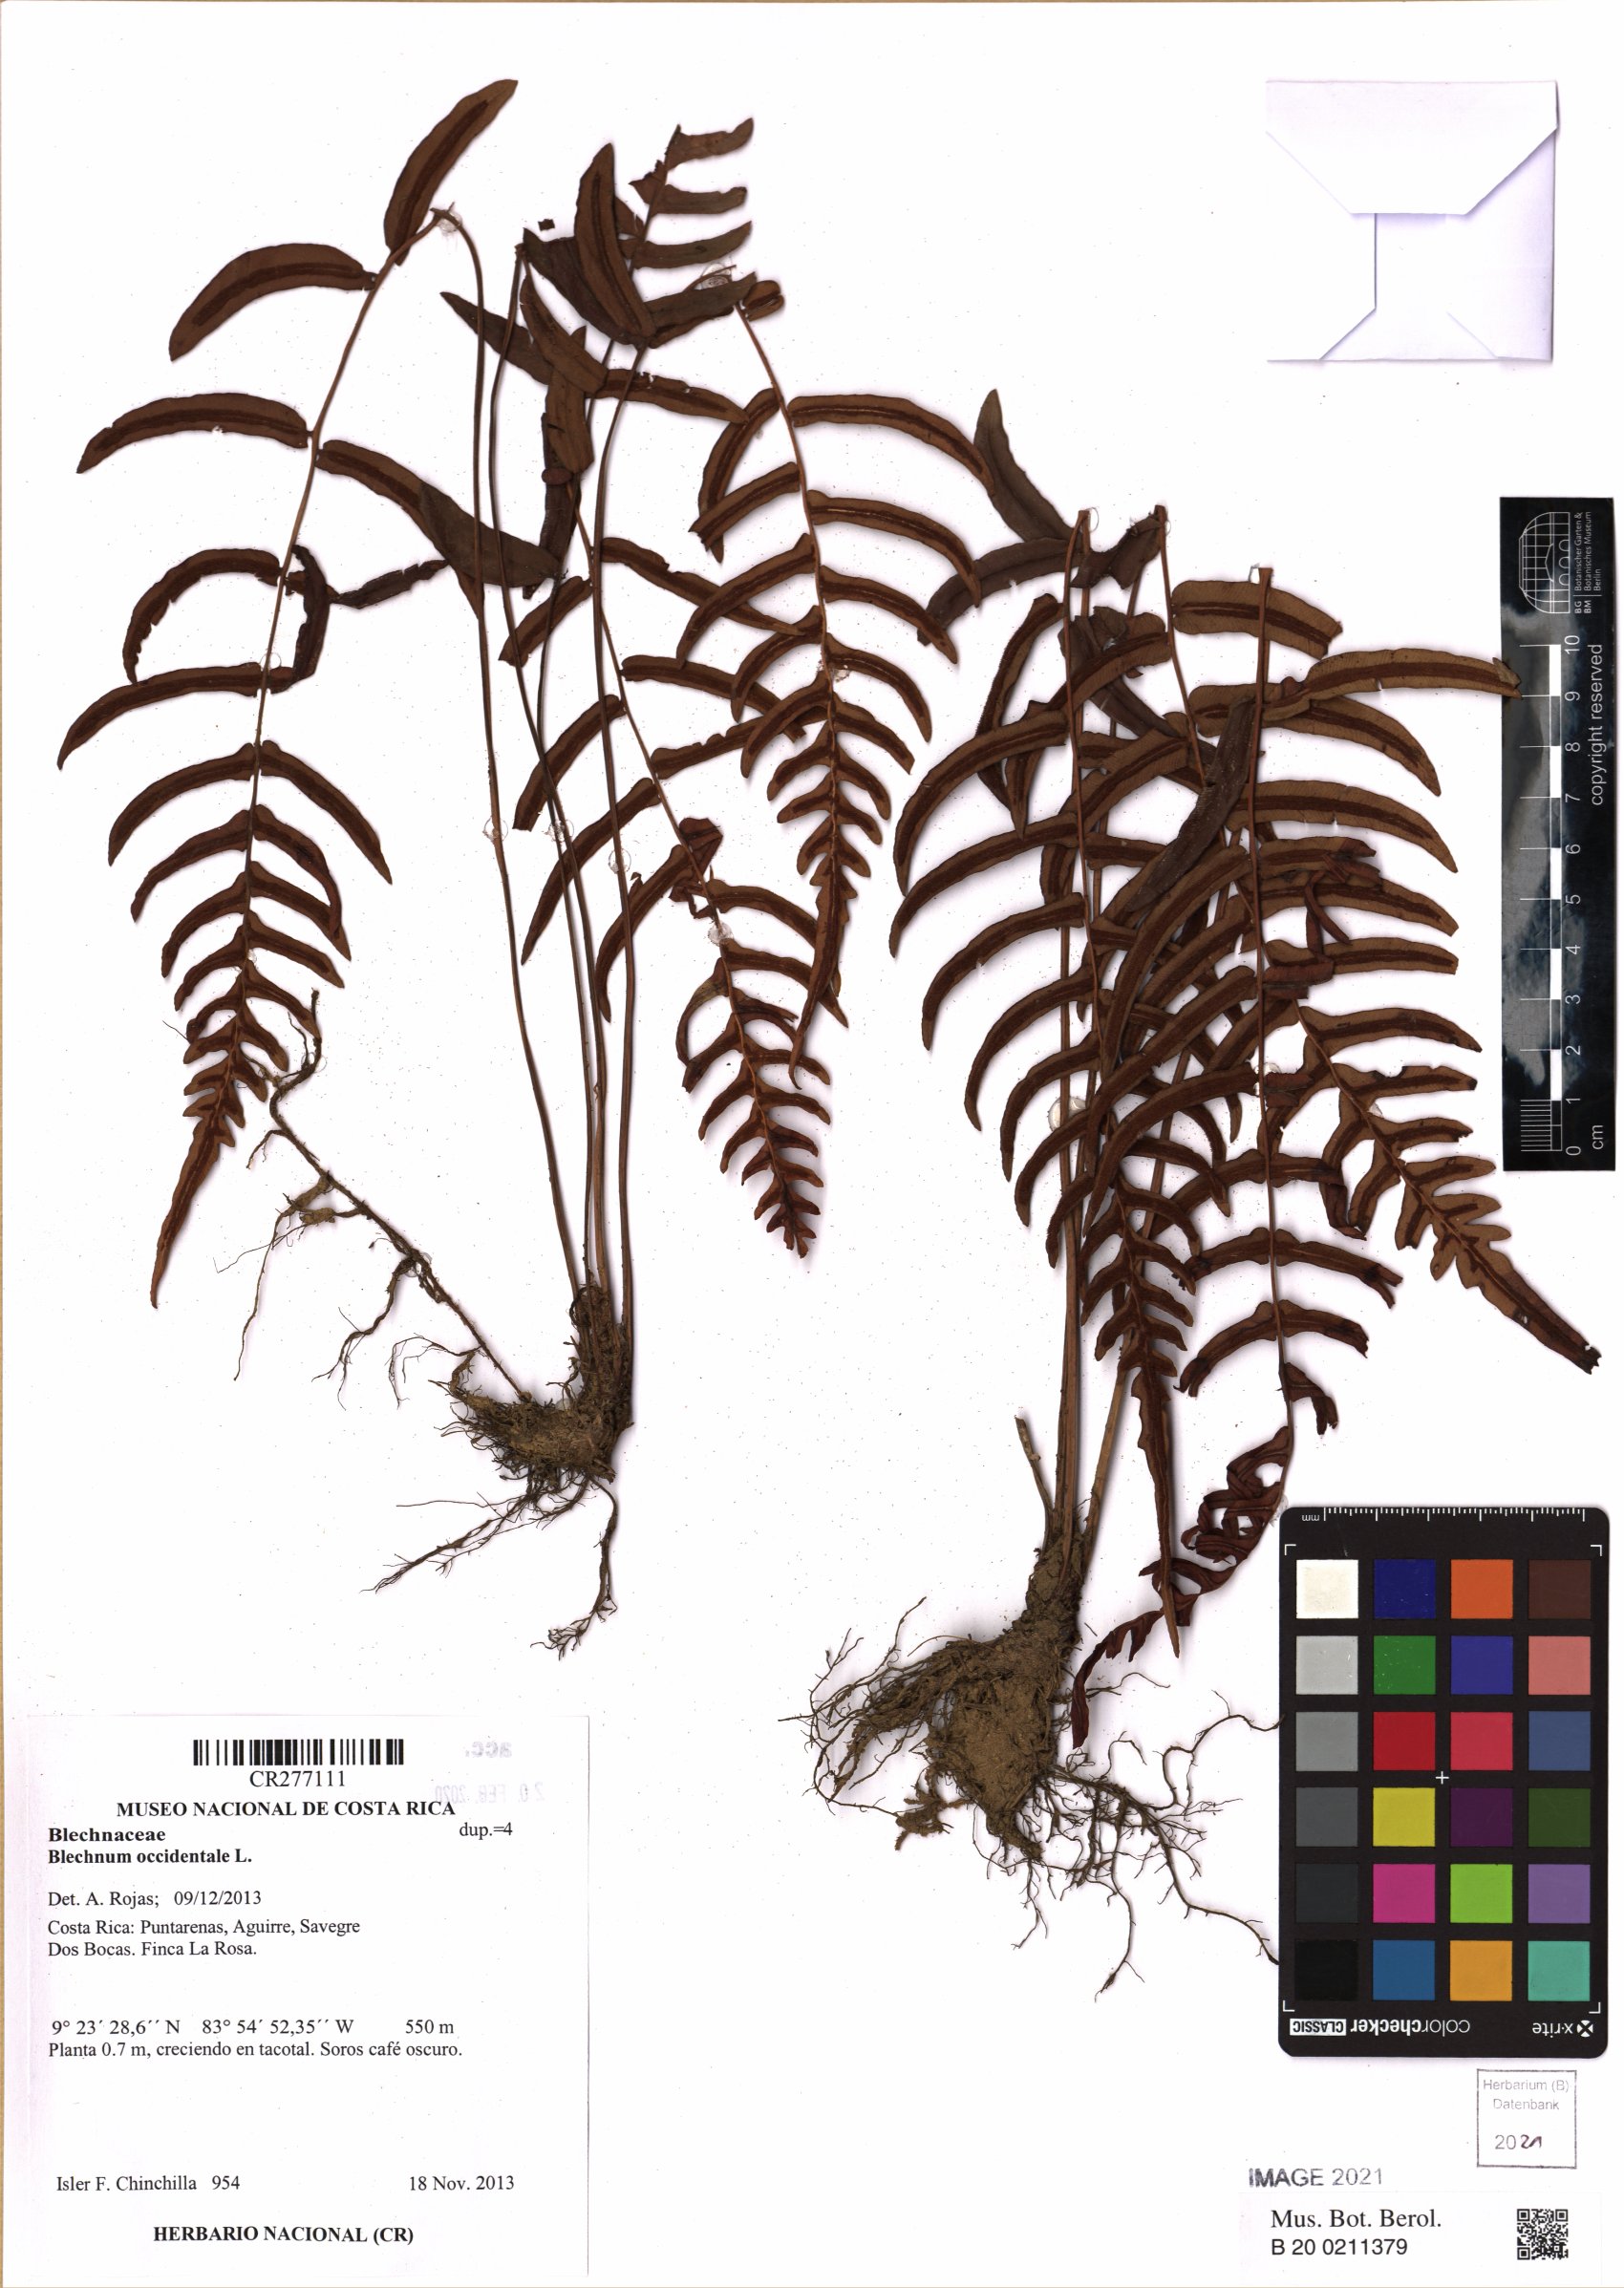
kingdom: Plantae
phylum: Tracheophyta
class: Polypodiopsida
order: Polypodiales
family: Blechnaceae
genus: Blechnum
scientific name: Blechnum occidentale
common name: Hammock fern
